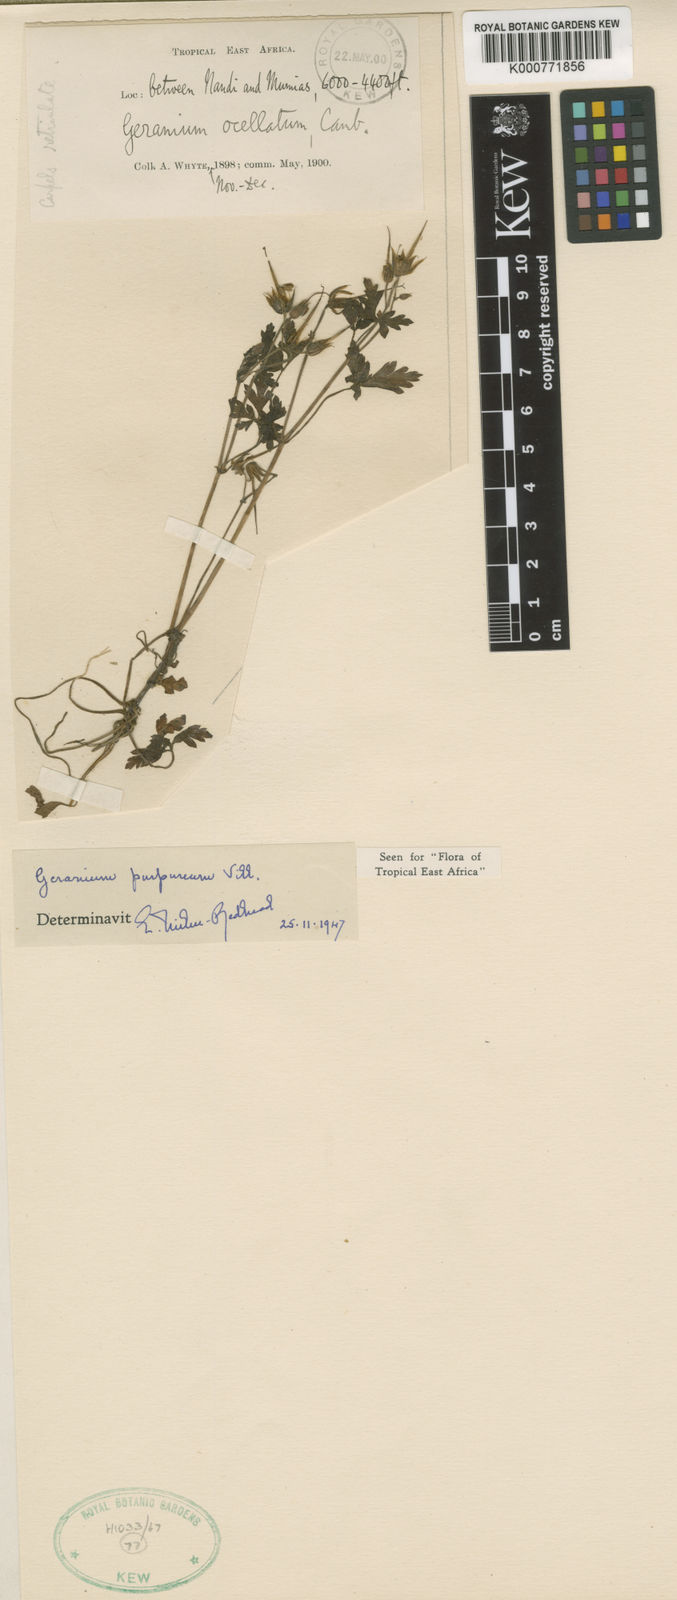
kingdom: Plantae
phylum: Tracheophyta
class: Magnoliopsida
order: Geraniales
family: Geraniaceae
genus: Geranium
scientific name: Geranium purpureum
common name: Little-robin
